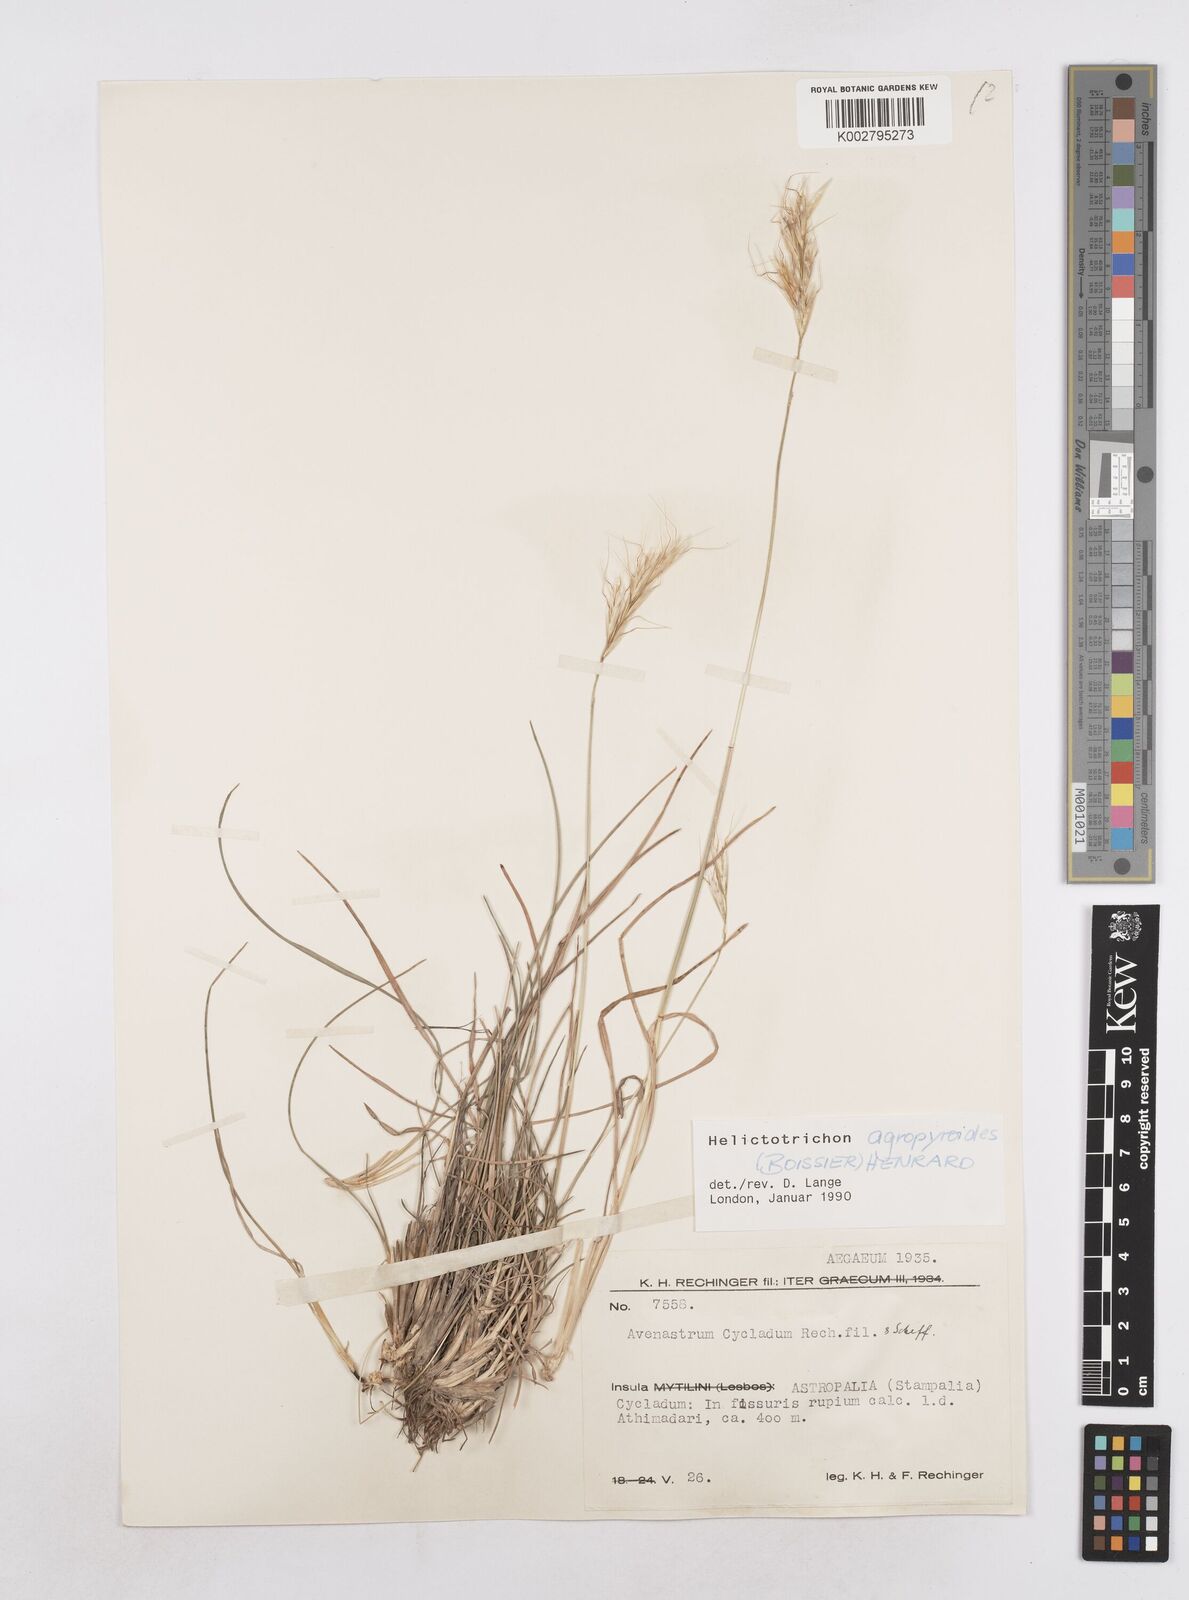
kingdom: Plantae
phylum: Tracheophyta
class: Liliopsida
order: Poales
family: Poaceae
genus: Helictochloa
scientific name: Helictochloa agropyroides
